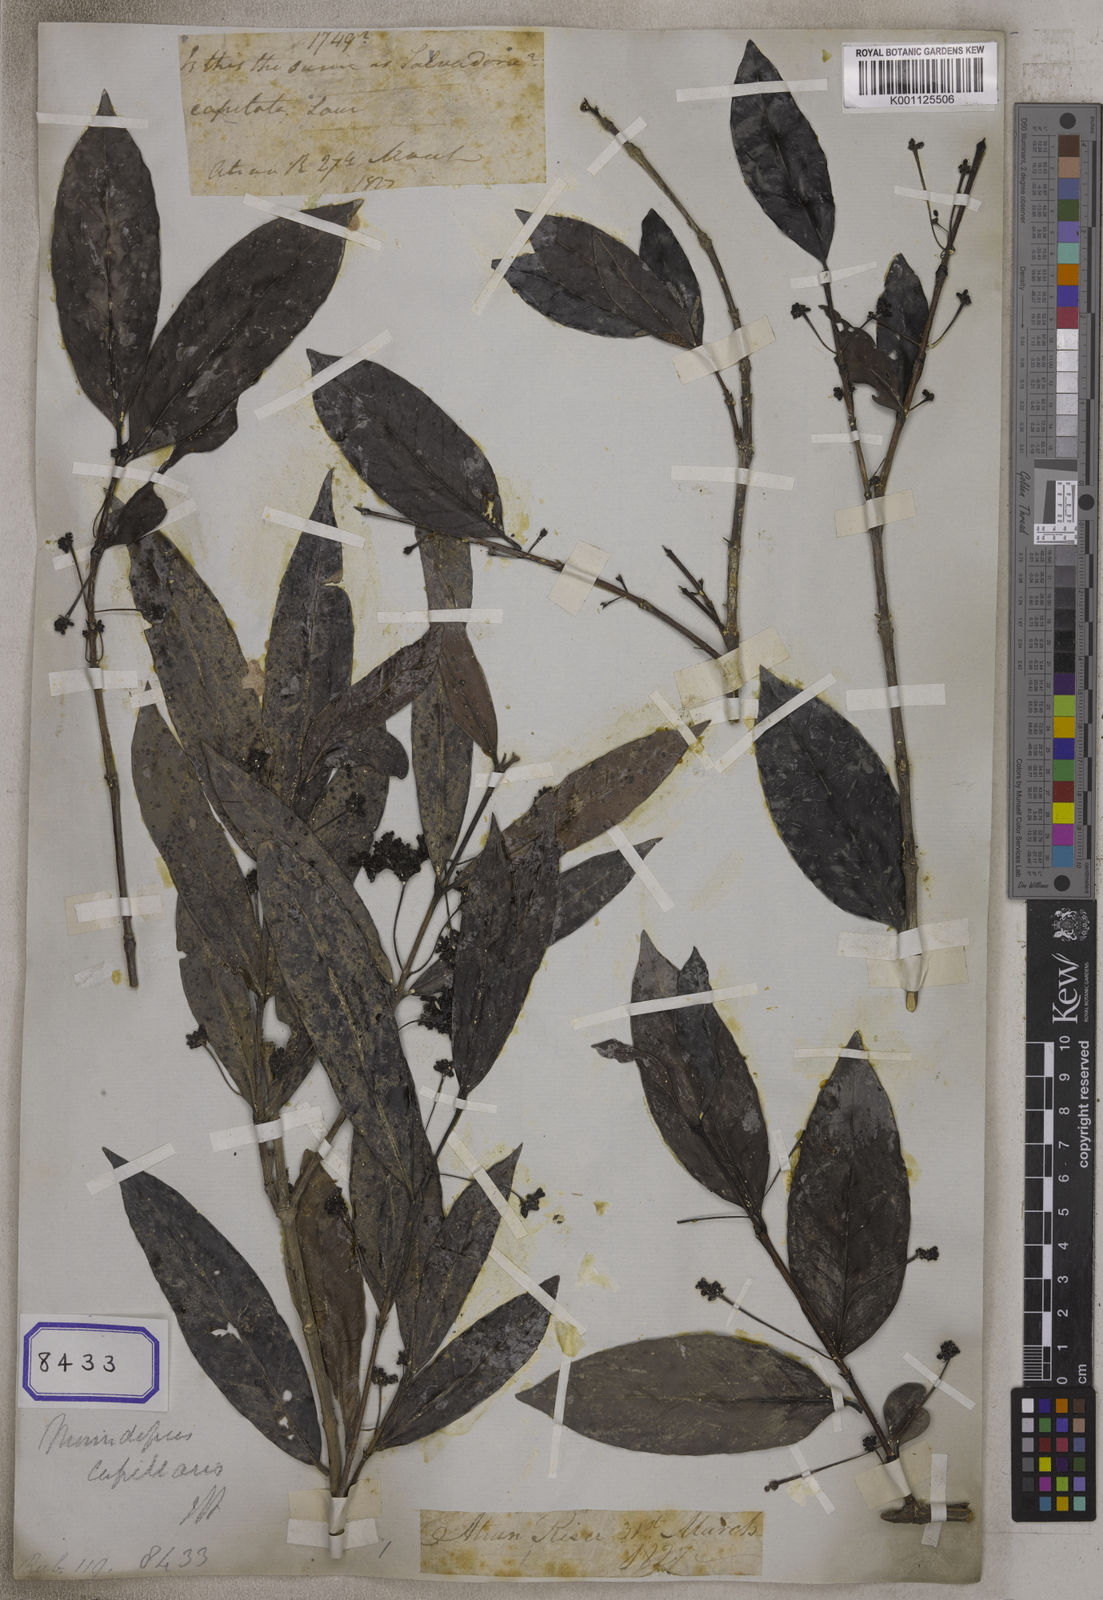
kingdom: Plantae
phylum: Tracheophyta
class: Magnoliopsida
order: Gentianales
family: Rubiaceae
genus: Morindopsis
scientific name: Morindopsis capillaris
